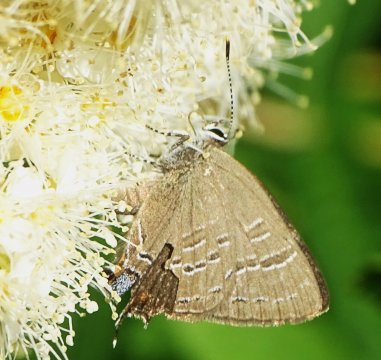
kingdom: Animalia
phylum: Arthropoda
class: Insecta
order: Lepidoptera
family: Lycaenidae
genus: Satyrium
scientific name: Satyrium calanus
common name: Banded Hairstreak
